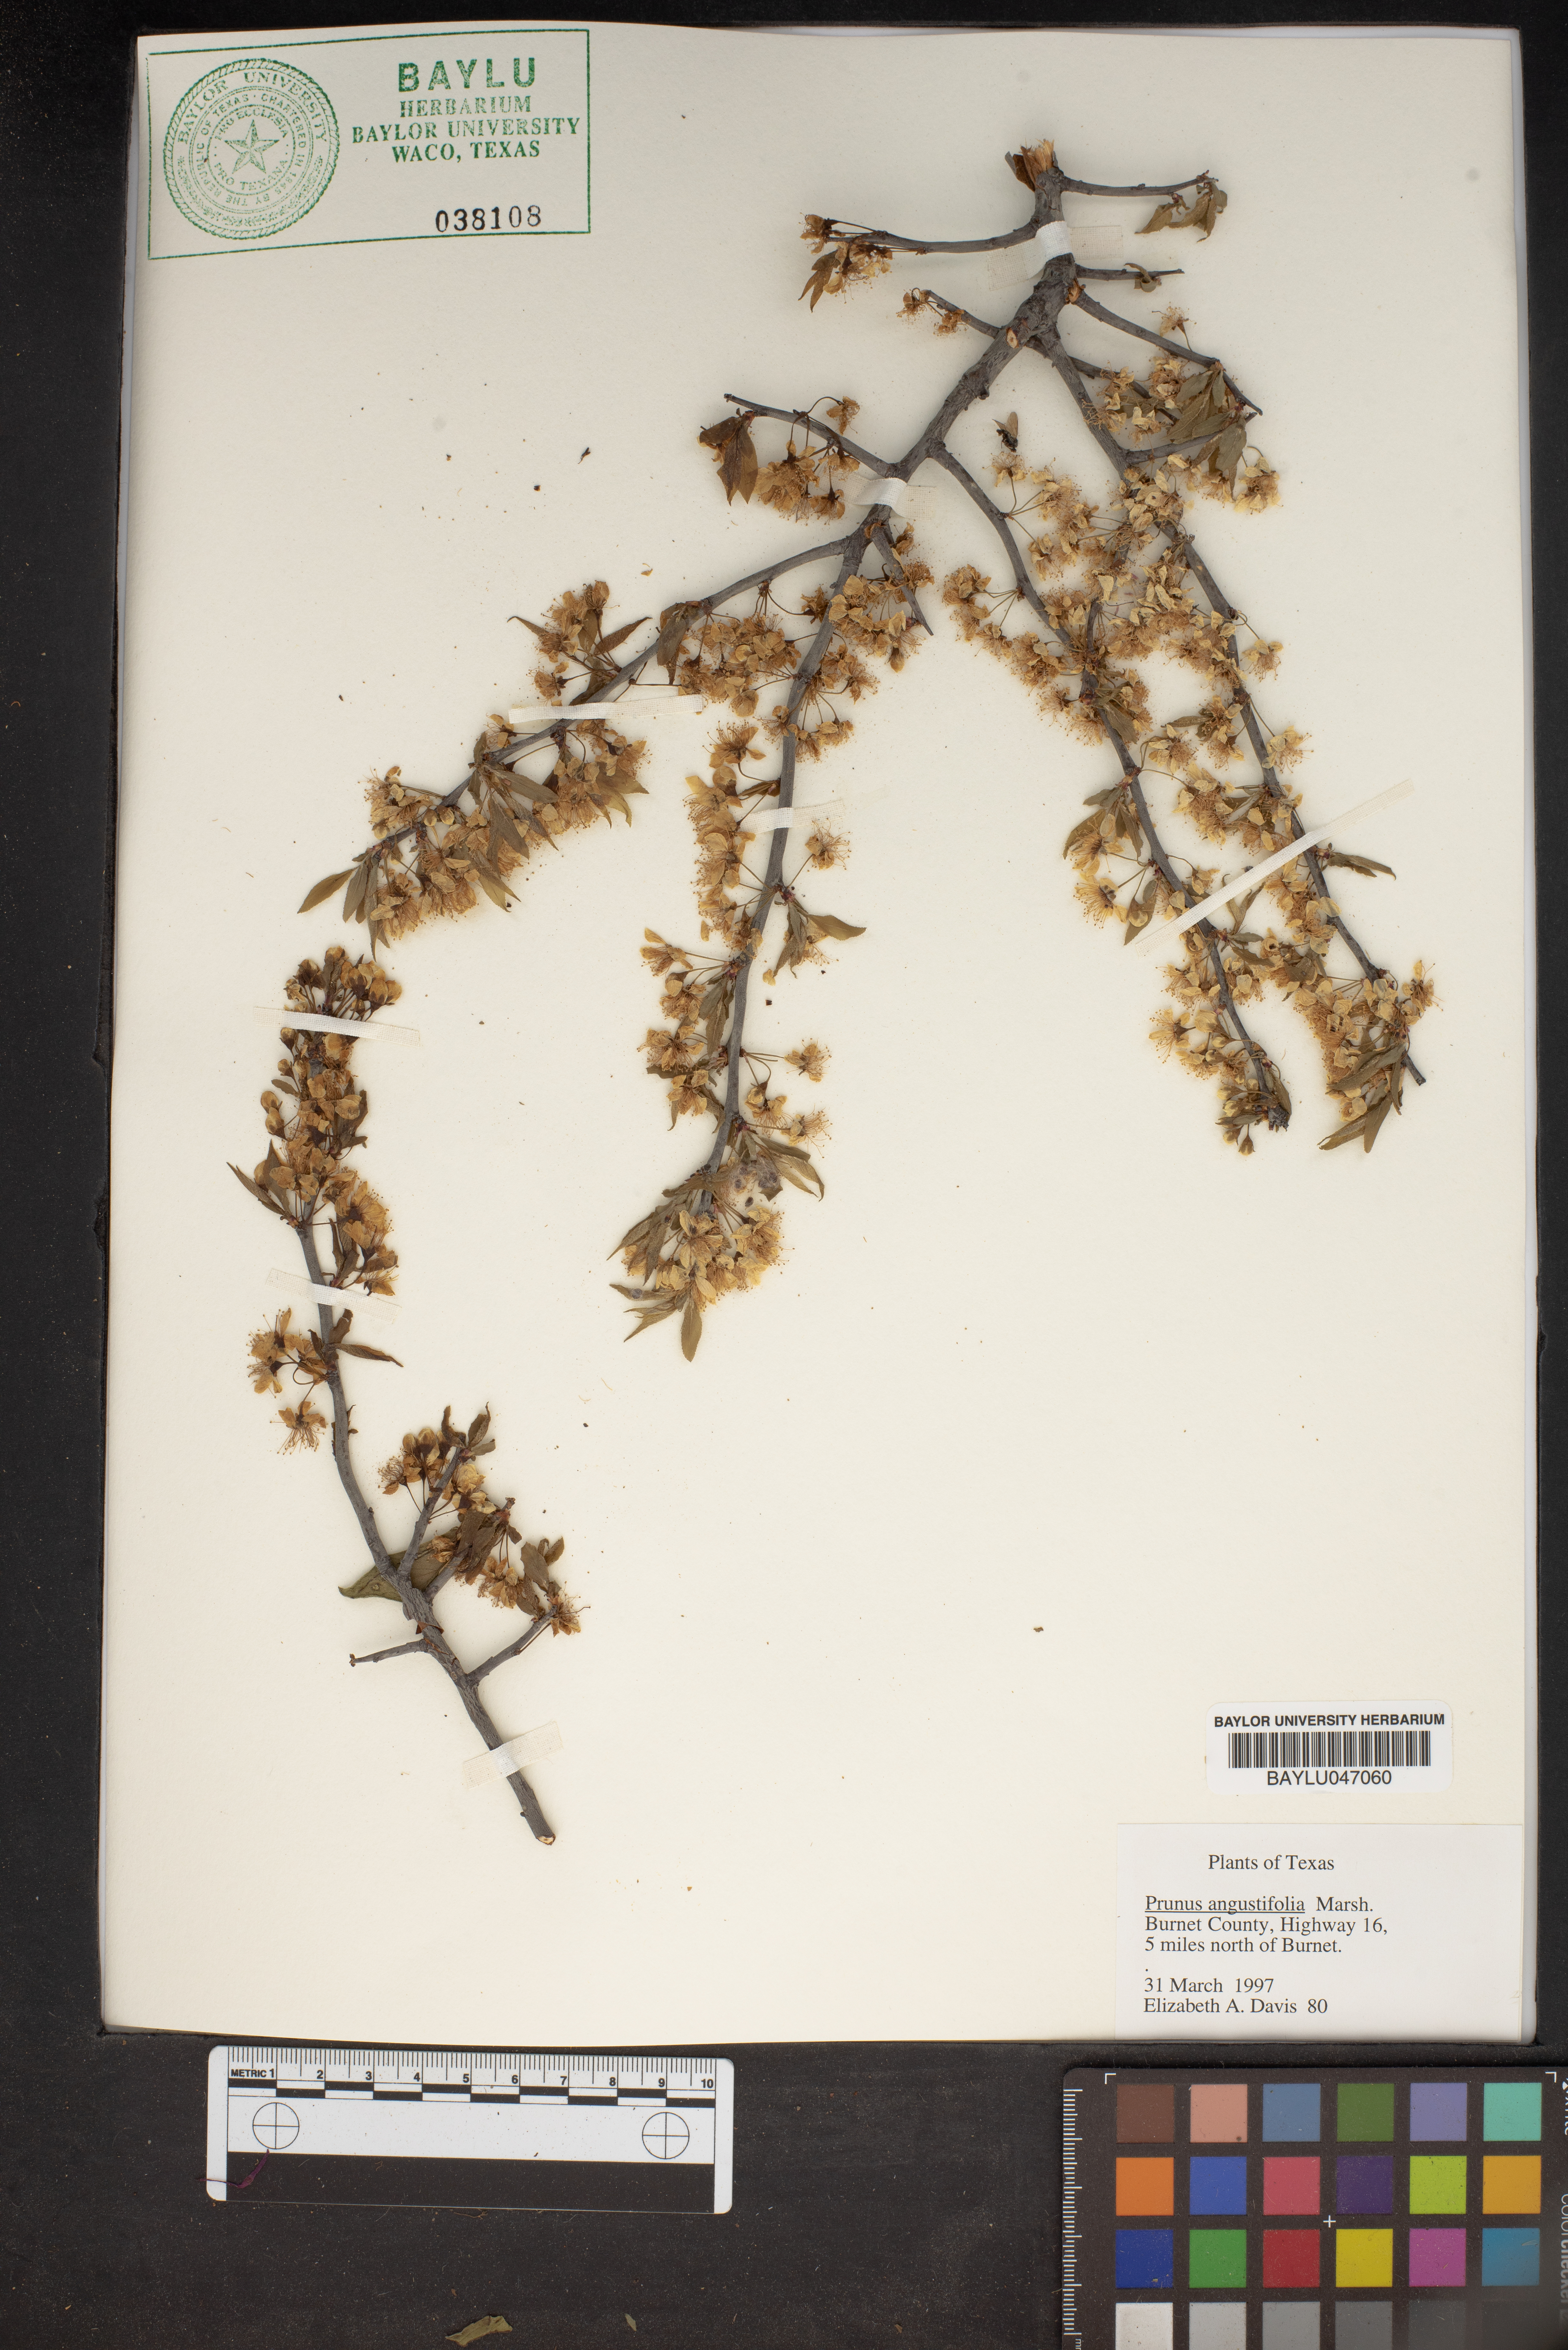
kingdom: Plantae
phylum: Tracheophyta
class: Magnoliopsida
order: Rosales
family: Rosaceae
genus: Prunus
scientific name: Prunus angustifolia
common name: Cherokee plum
